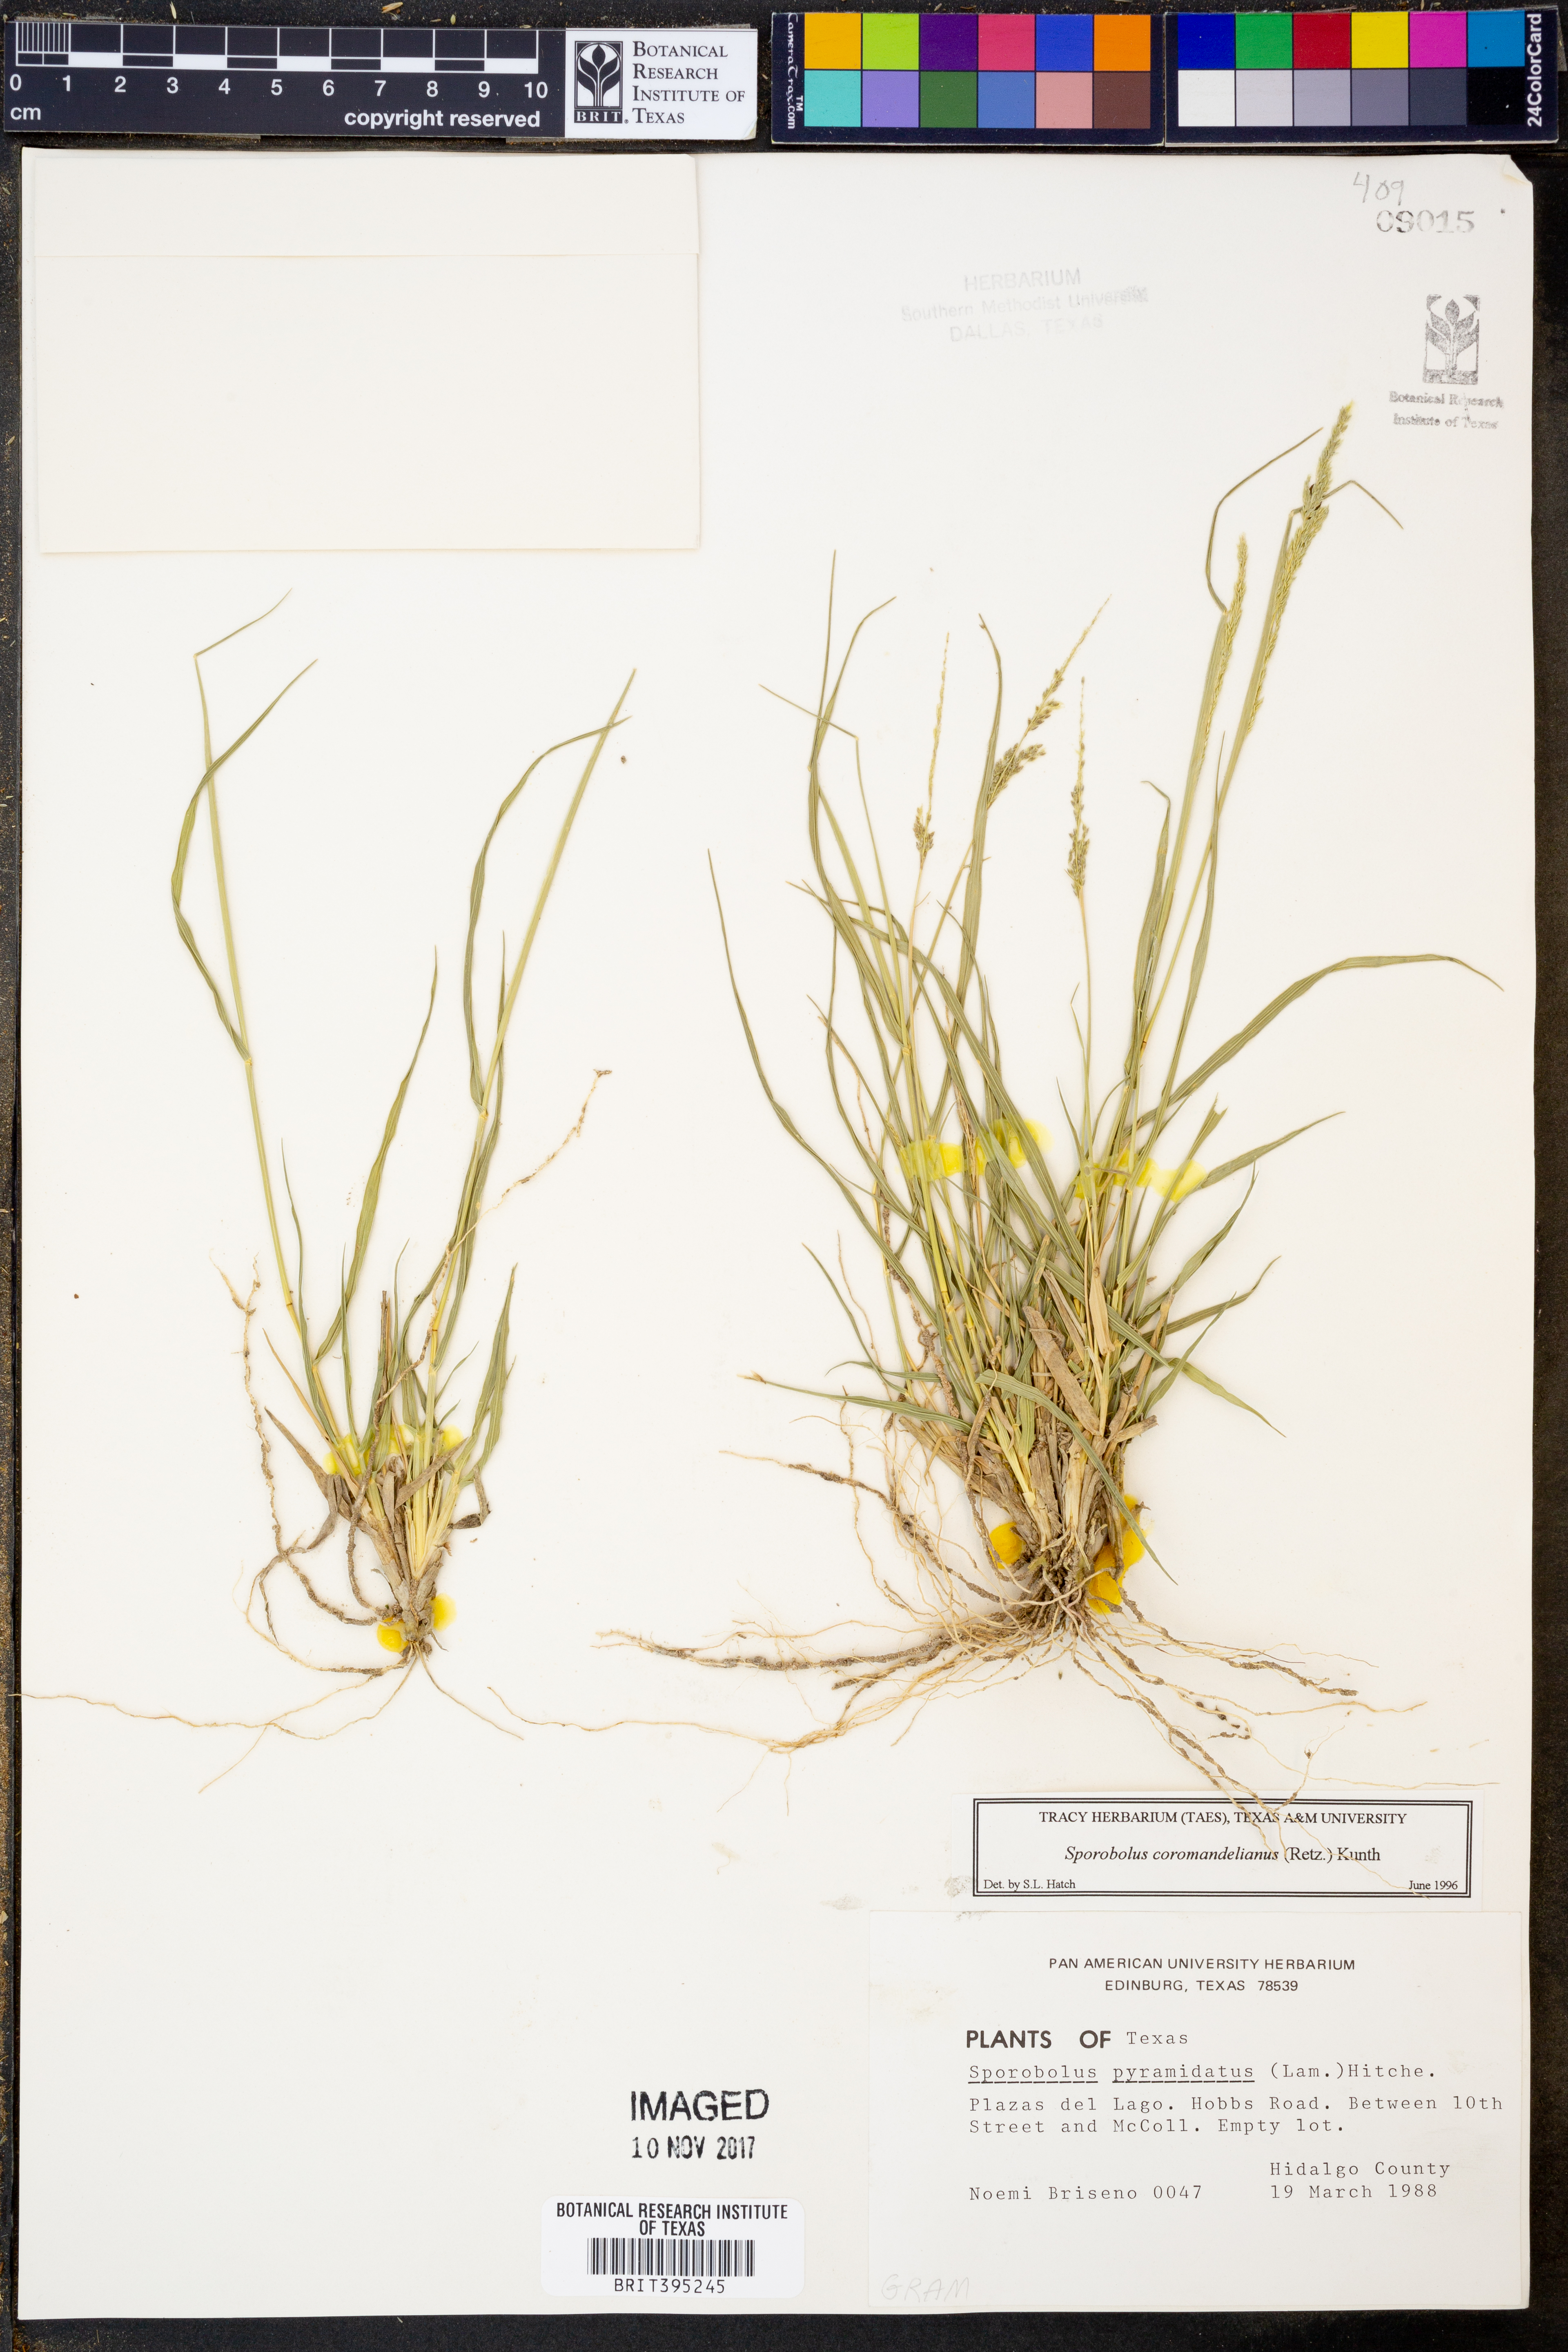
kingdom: Plantae
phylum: Tracheophyta
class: Liliopsida
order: Poales
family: Poaceae
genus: Sporobolus
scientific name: Sporobolus coromandelianus
